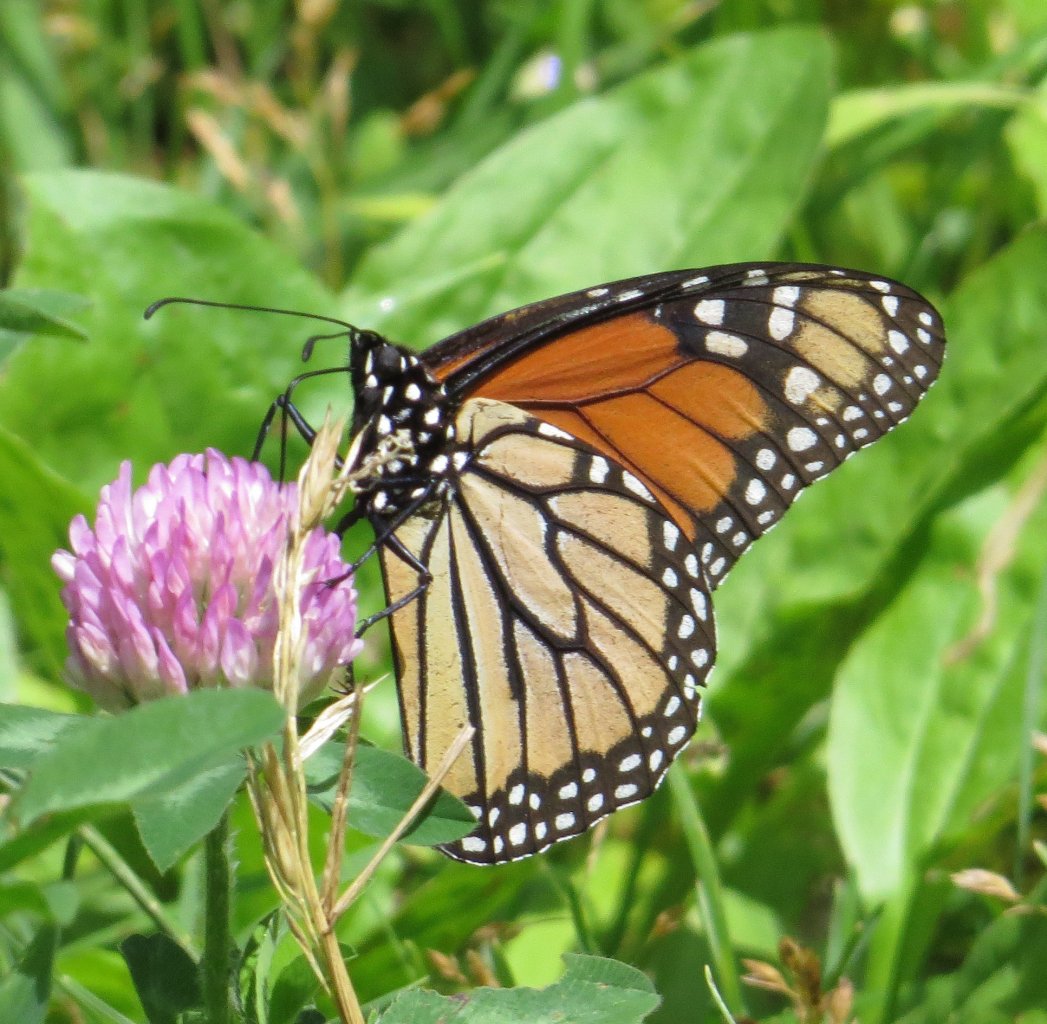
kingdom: Animalia
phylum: Arthropoda
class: Insecta
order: Lepidoptera
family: Nymphalidae
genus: Danaus
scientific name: Danaus plexippus
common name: Monarch
